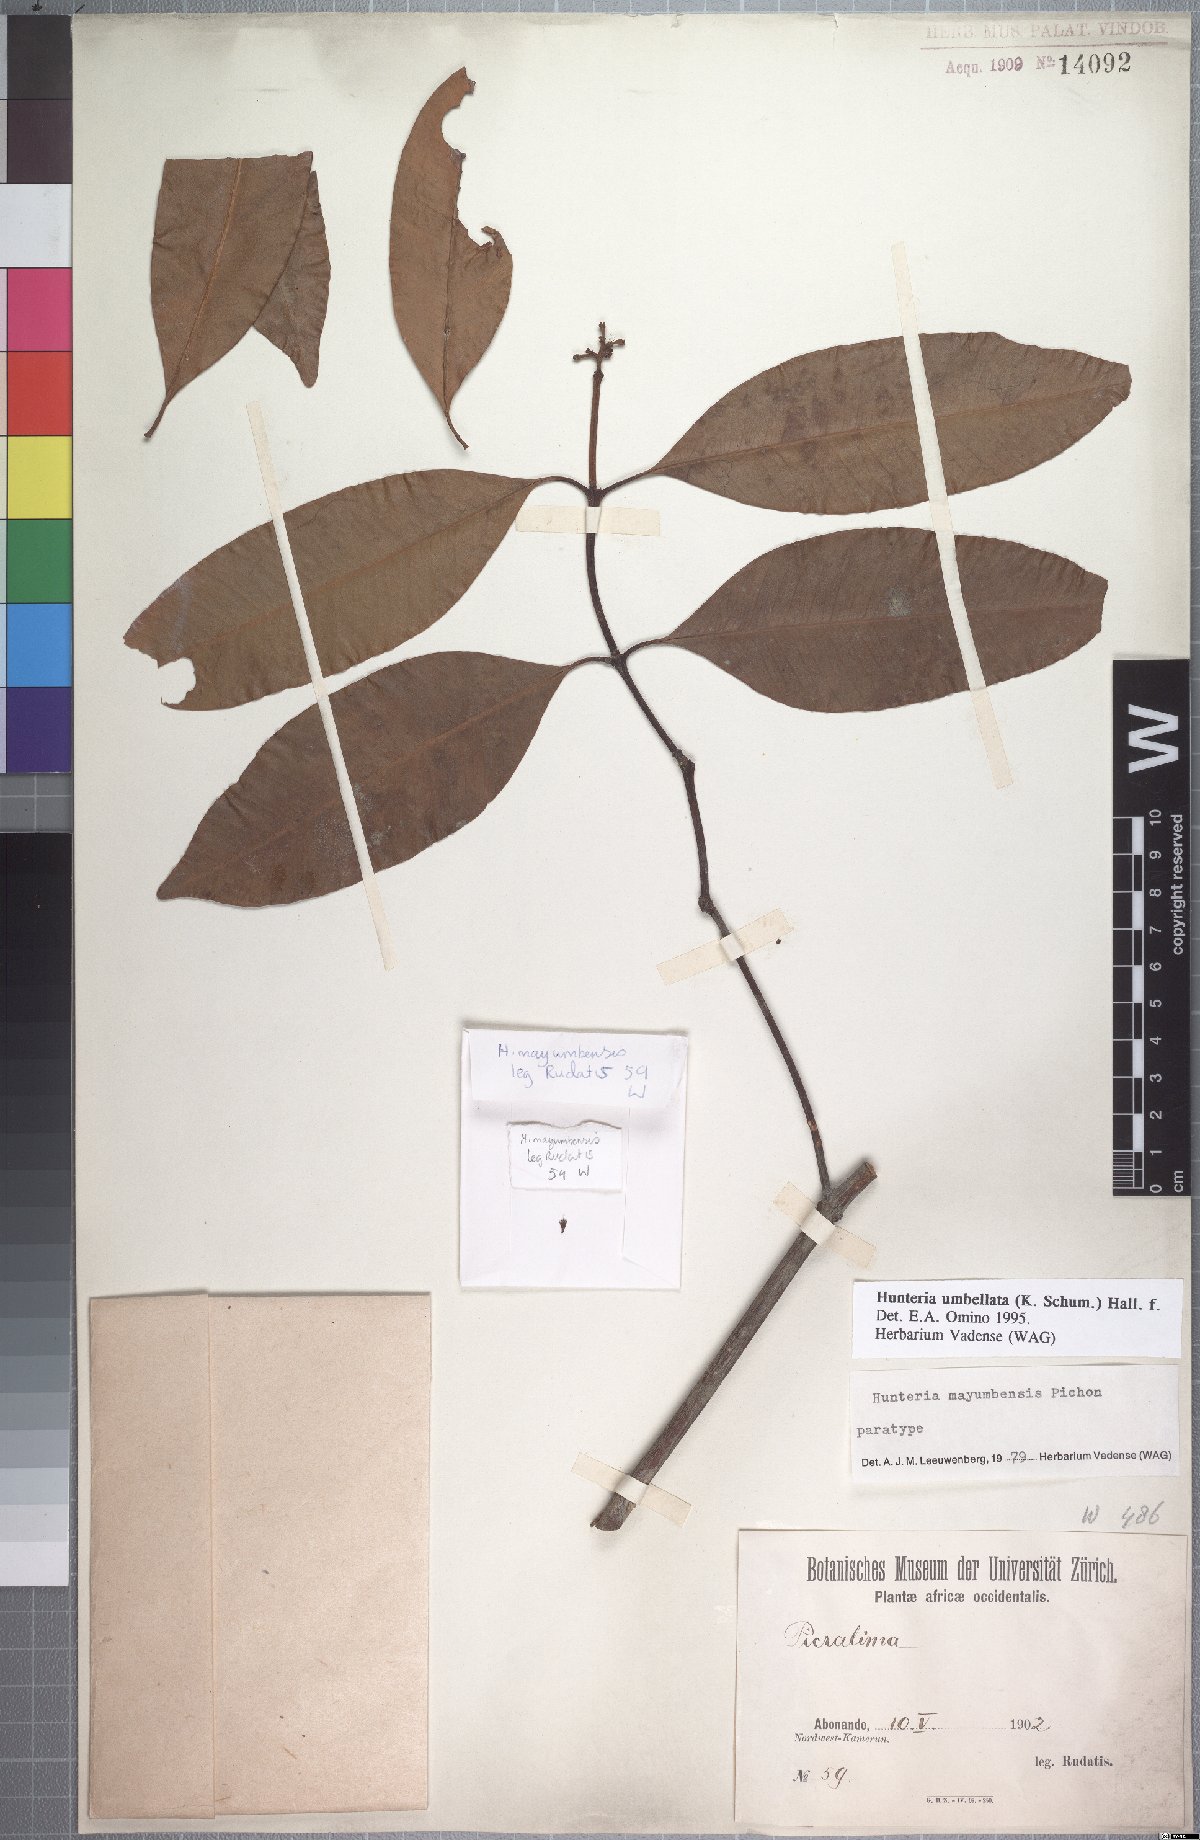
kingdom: Plantae
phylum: Tracheophyta
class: Magnoliopsida
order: Gentianales
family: Apocynaceae
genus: Hunteria
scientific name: Hunteria umbellata
